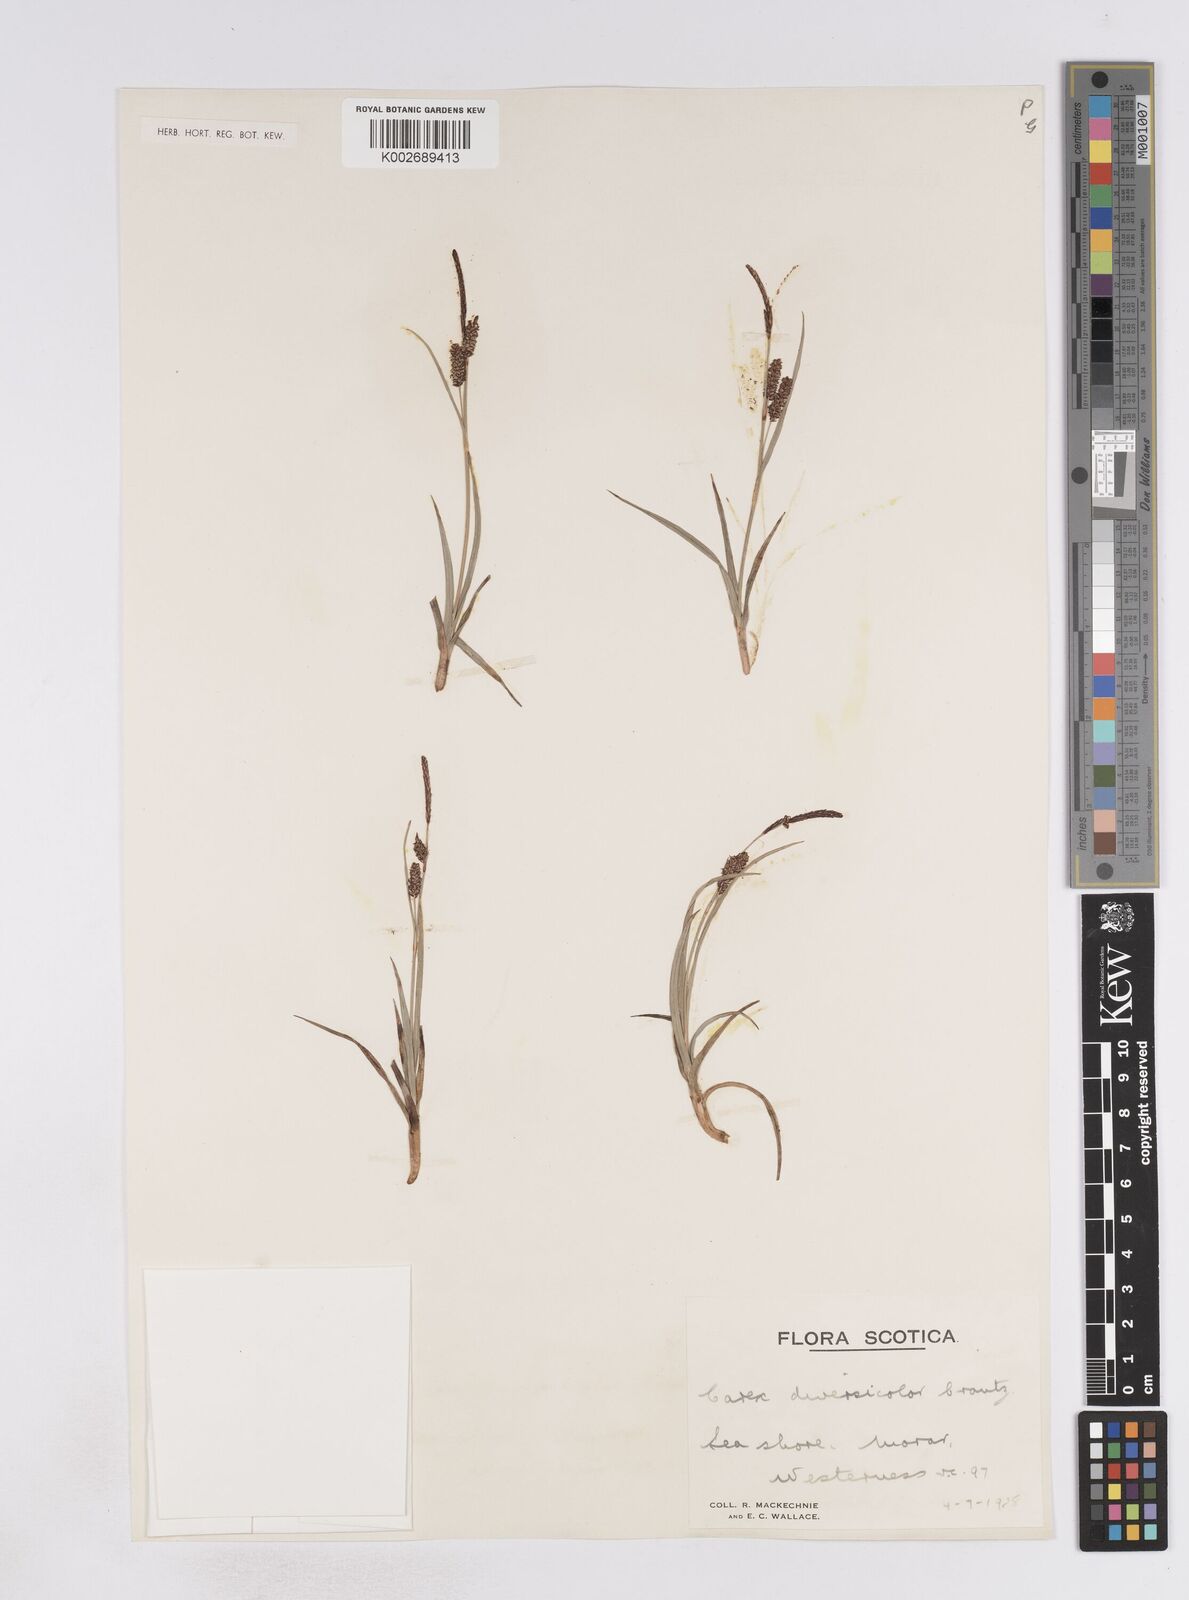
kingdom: Plantae
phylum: Tracheophyta
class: Liliopsida
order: Poales
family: Cyperaceae
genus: Carex
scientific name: Carex flacca
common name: Glaucous sedge
